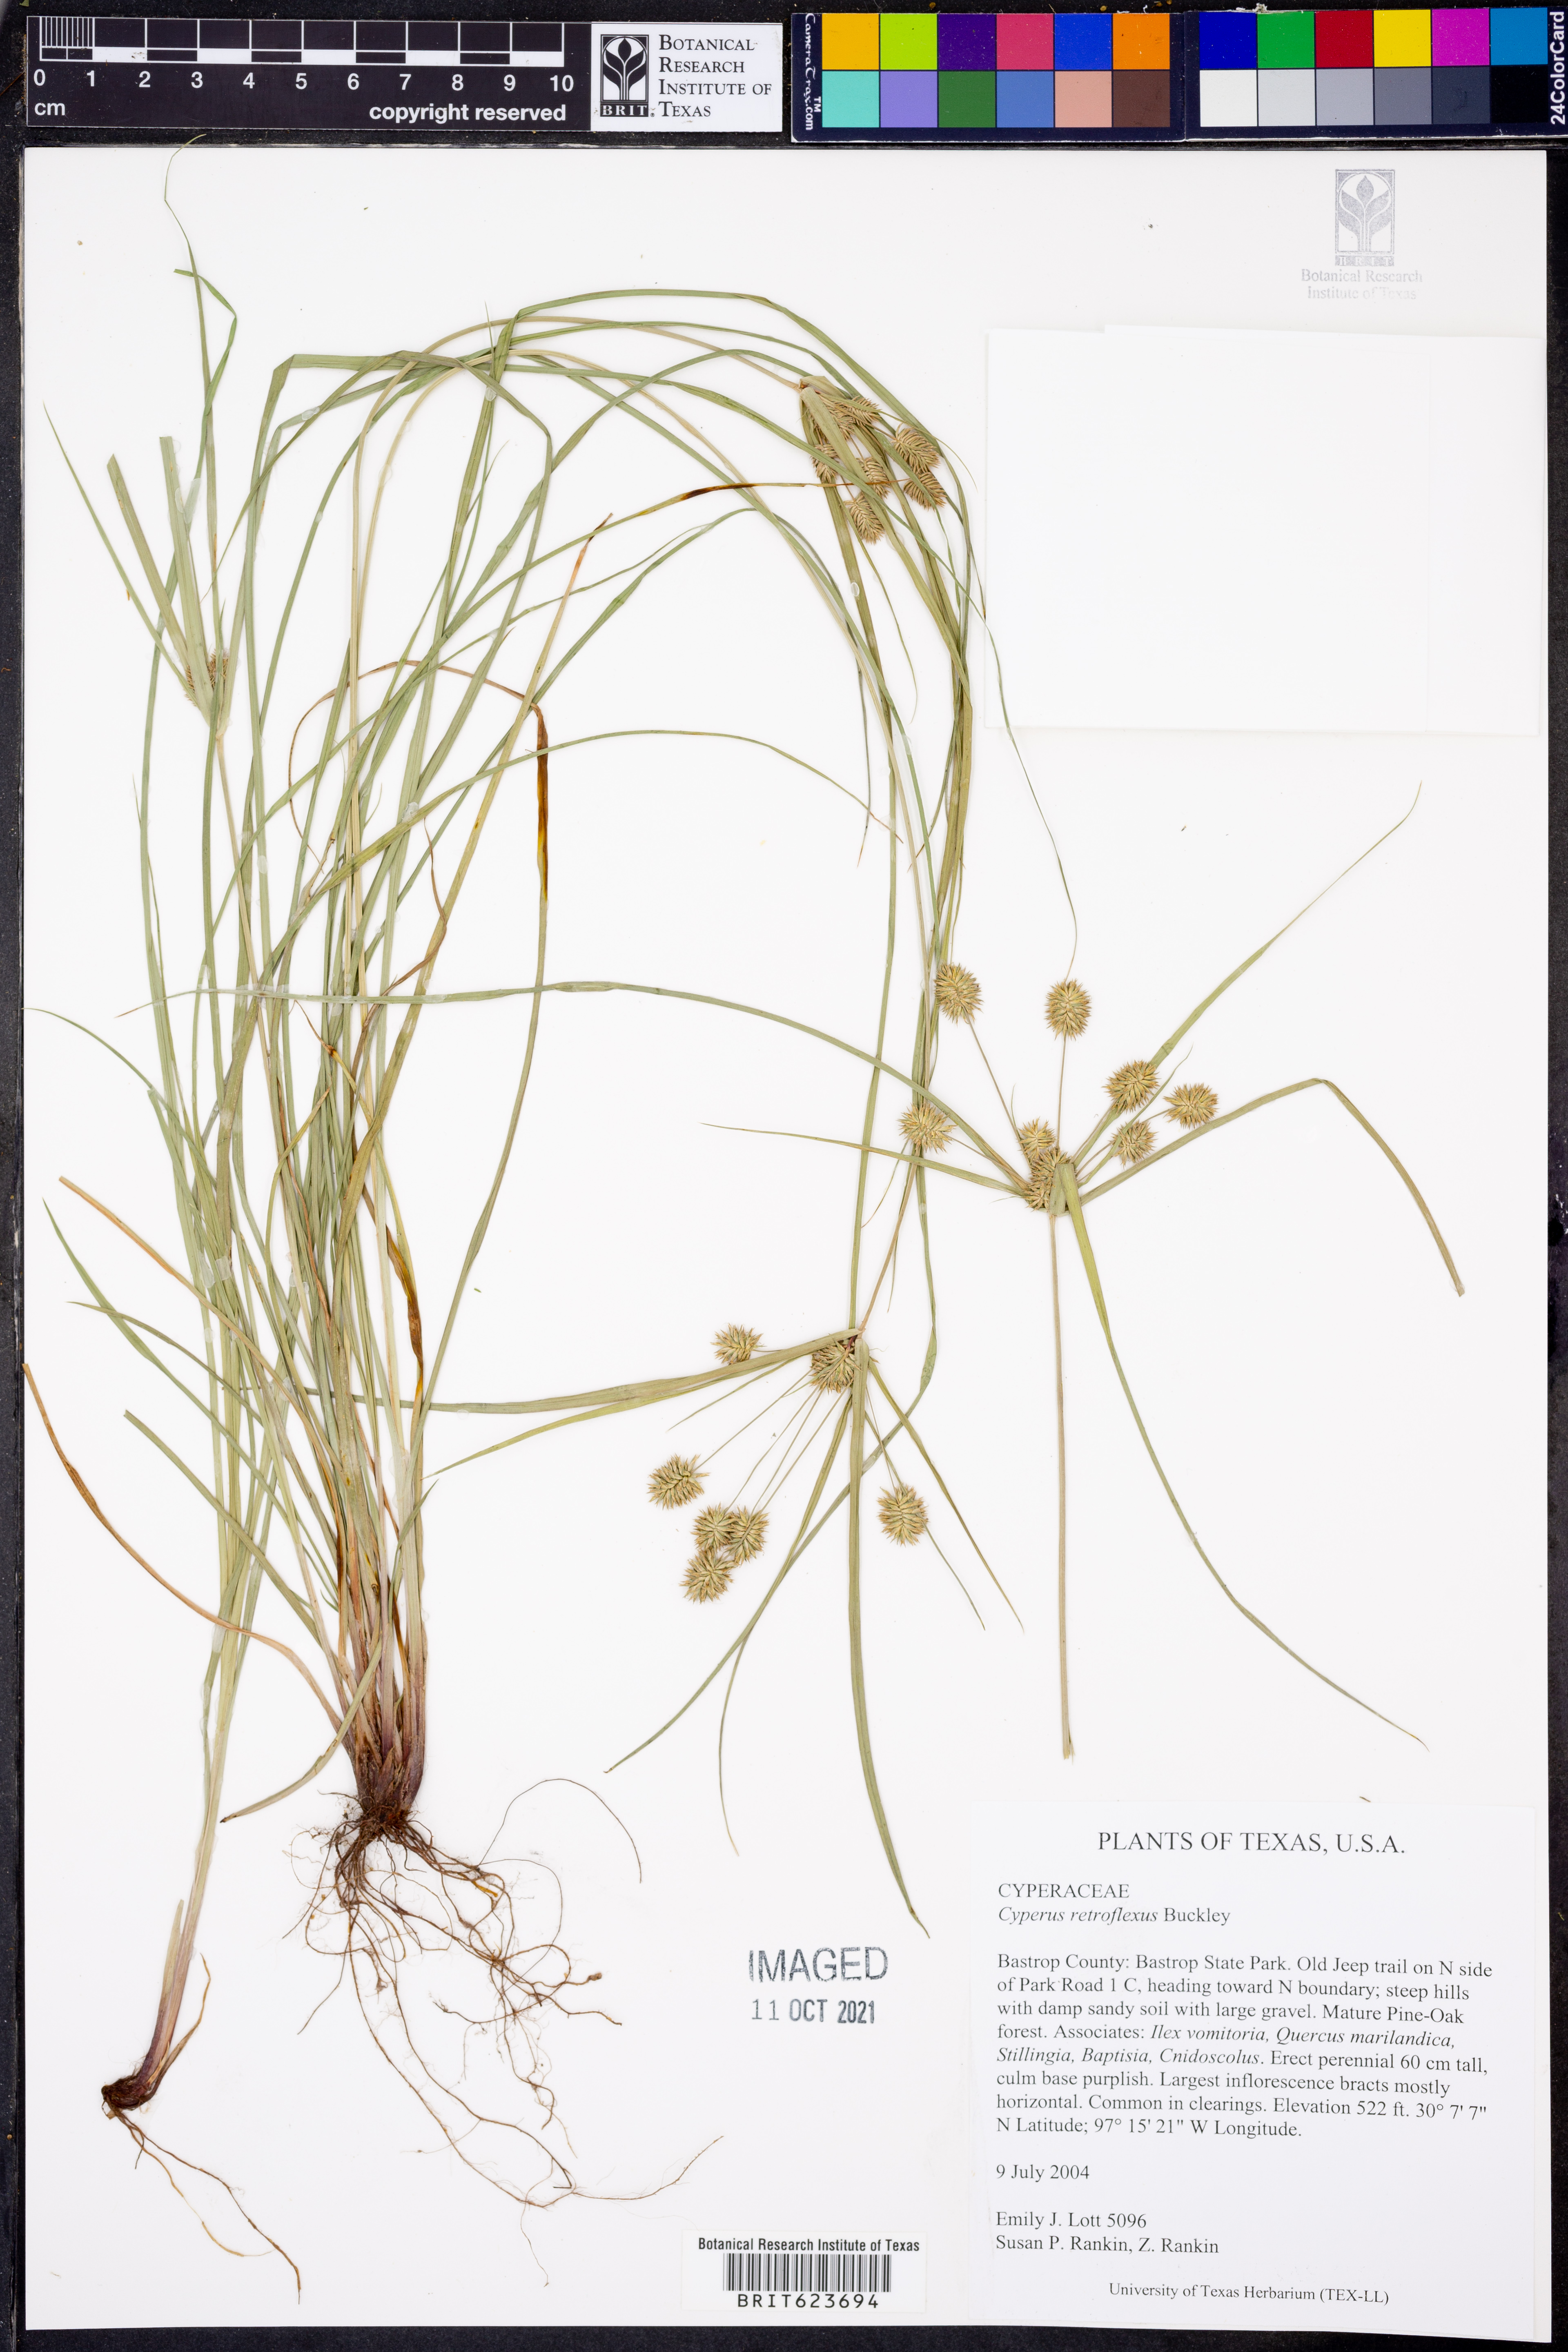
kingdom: Plantae
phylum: Tracheophyta
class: Liliopsida
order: Poales
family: Cyperaceae
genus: Cyperus
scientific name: Cyperus retroflexus
